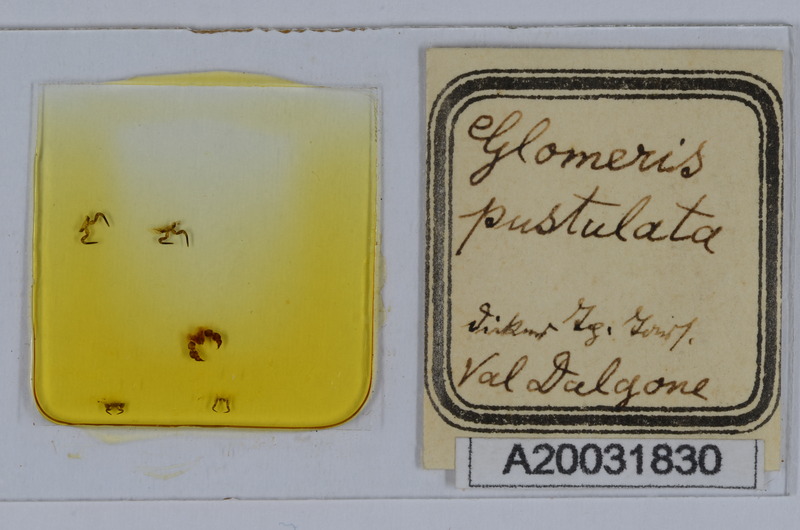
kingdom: Animalia
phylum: Arthropoda
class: Diplopoda
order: Glomerida
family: Glomeridae
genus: Glomeris
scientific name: Glomeris pustulata
